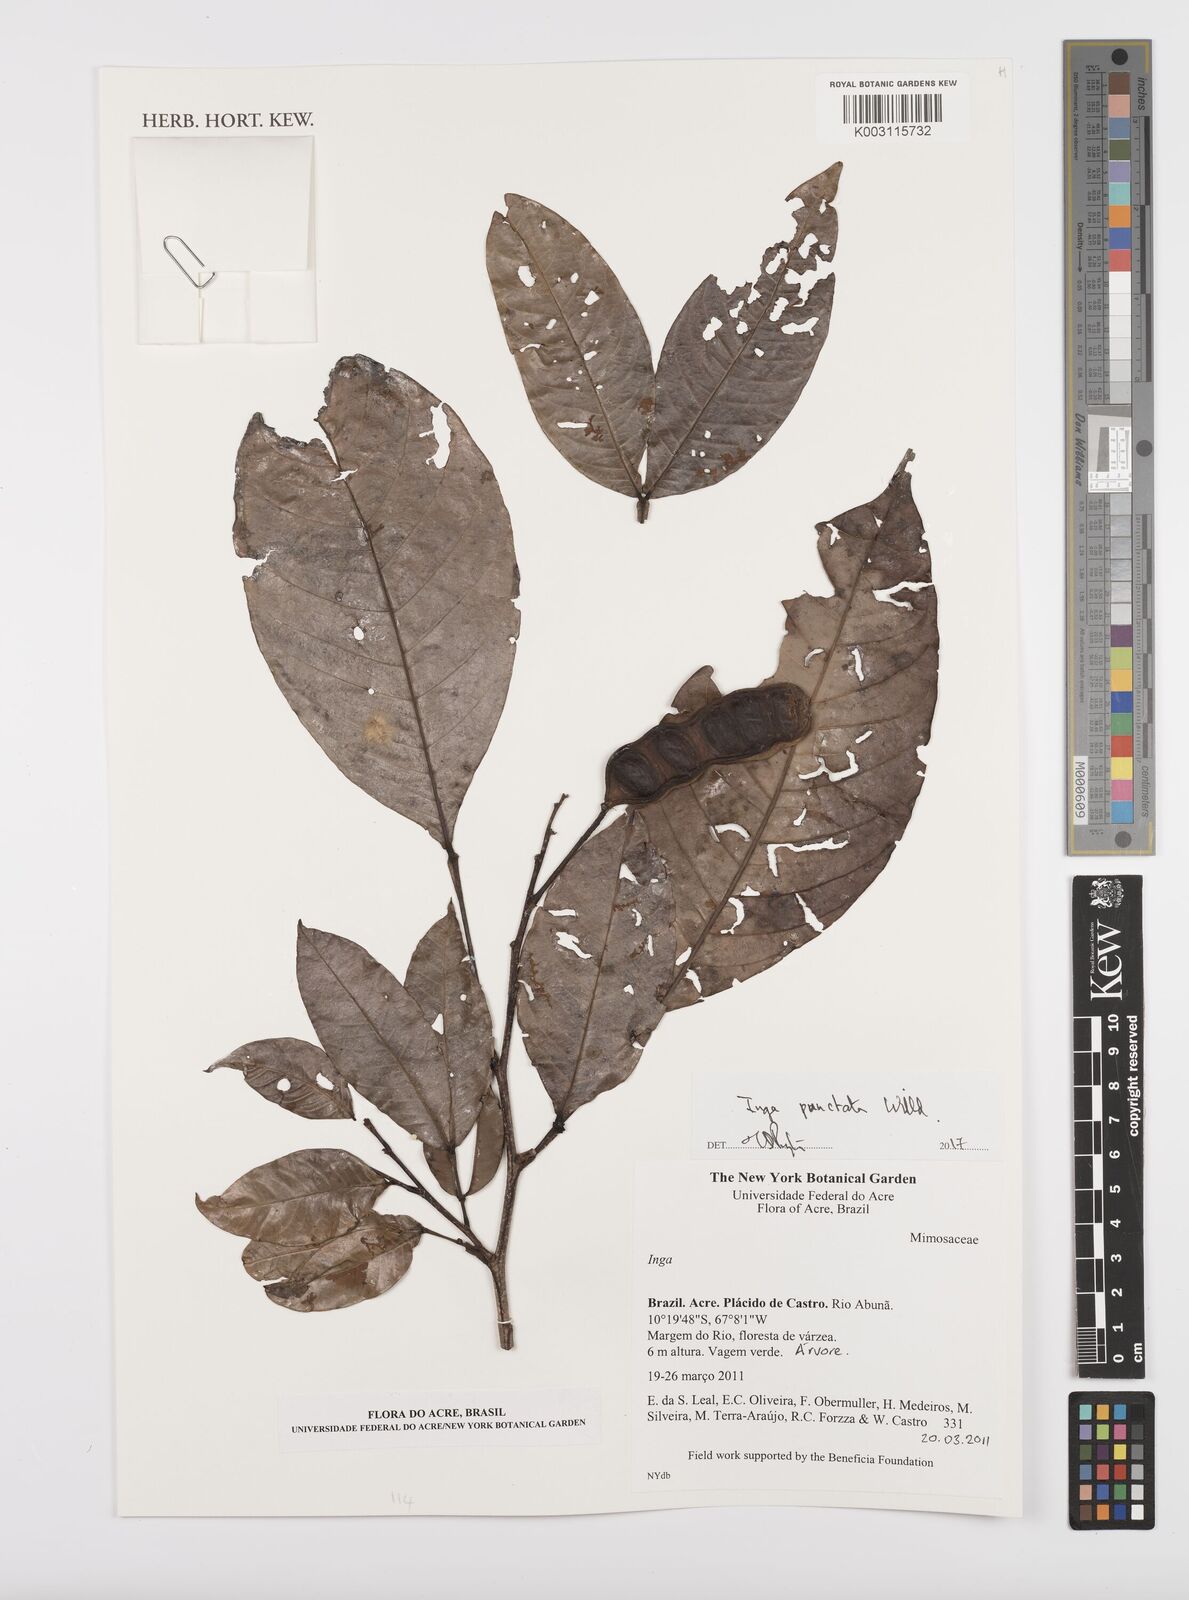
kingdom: Plantae
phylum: Tracheophyta
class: Magnoliopsida
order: Fabales
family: Fabaceae
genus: Inga
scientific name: Inga punctata
